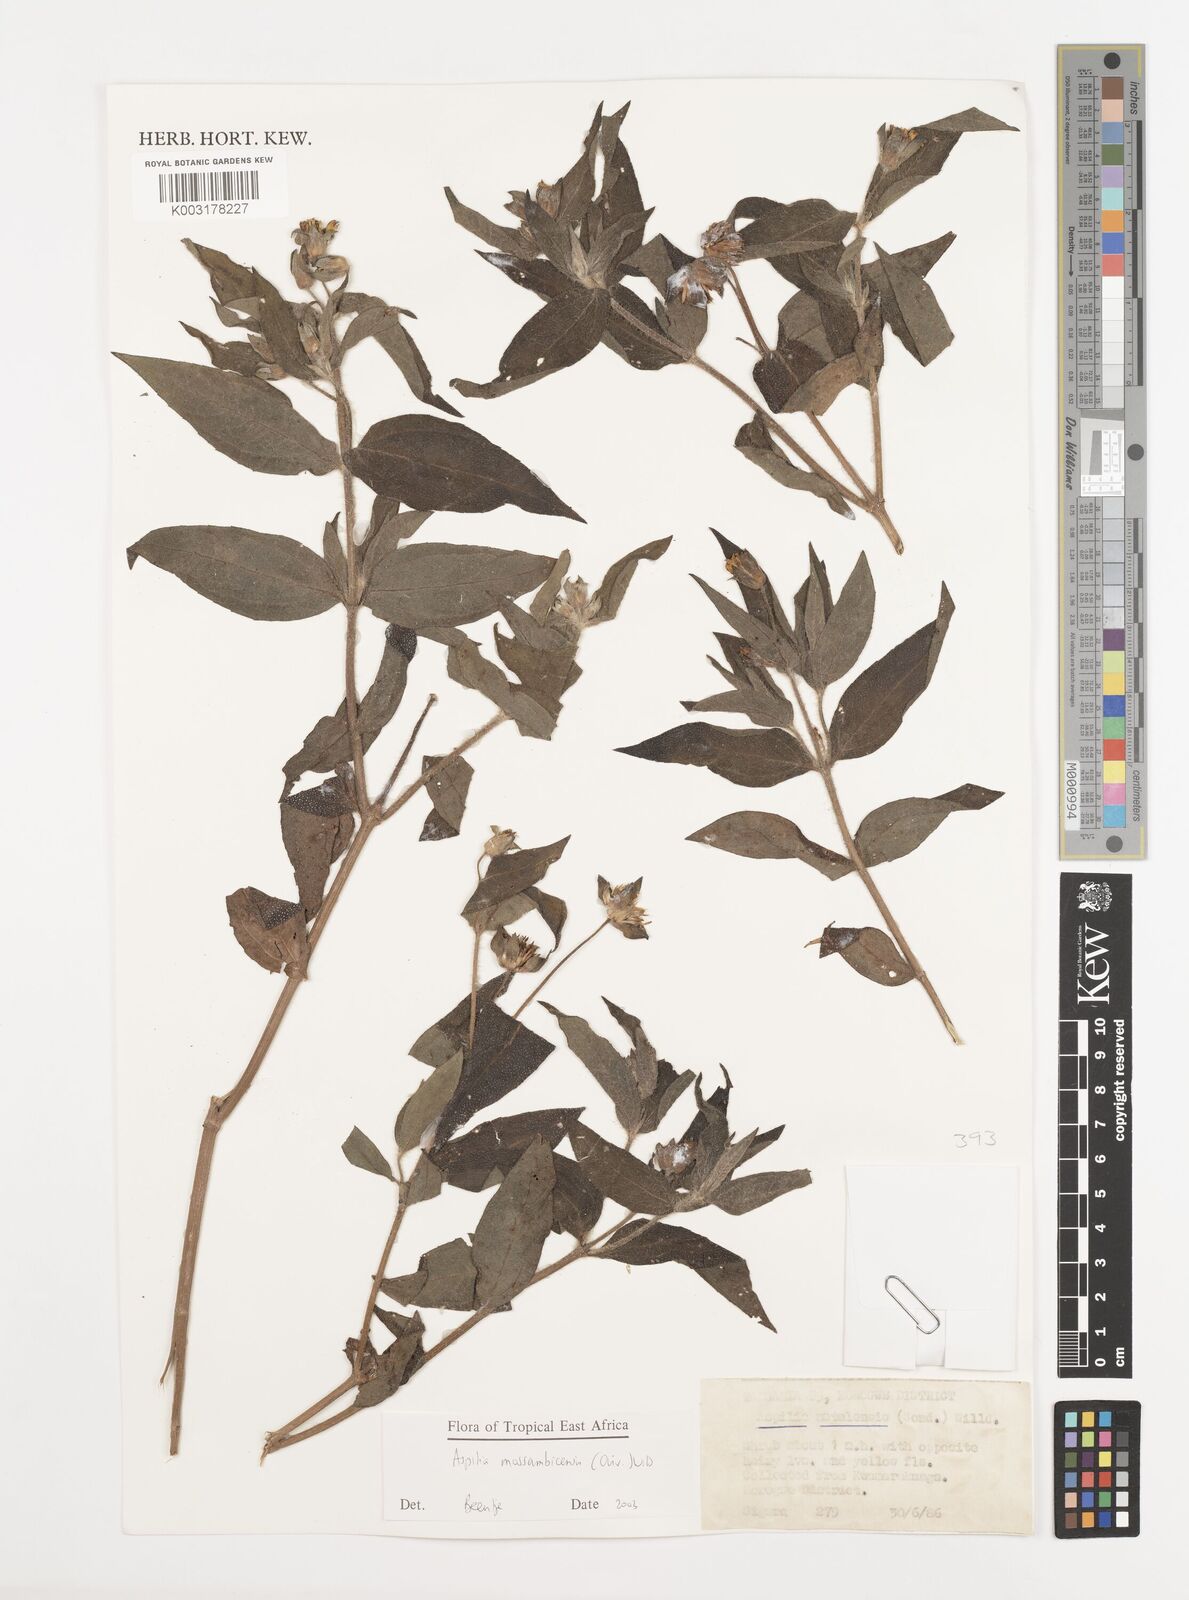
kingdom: Plantae
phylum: Tracheophyta
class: Magnoliopsida
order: Asterales
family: Asteraceae
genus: Aspilia
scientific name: Aspilia mossambicensis
